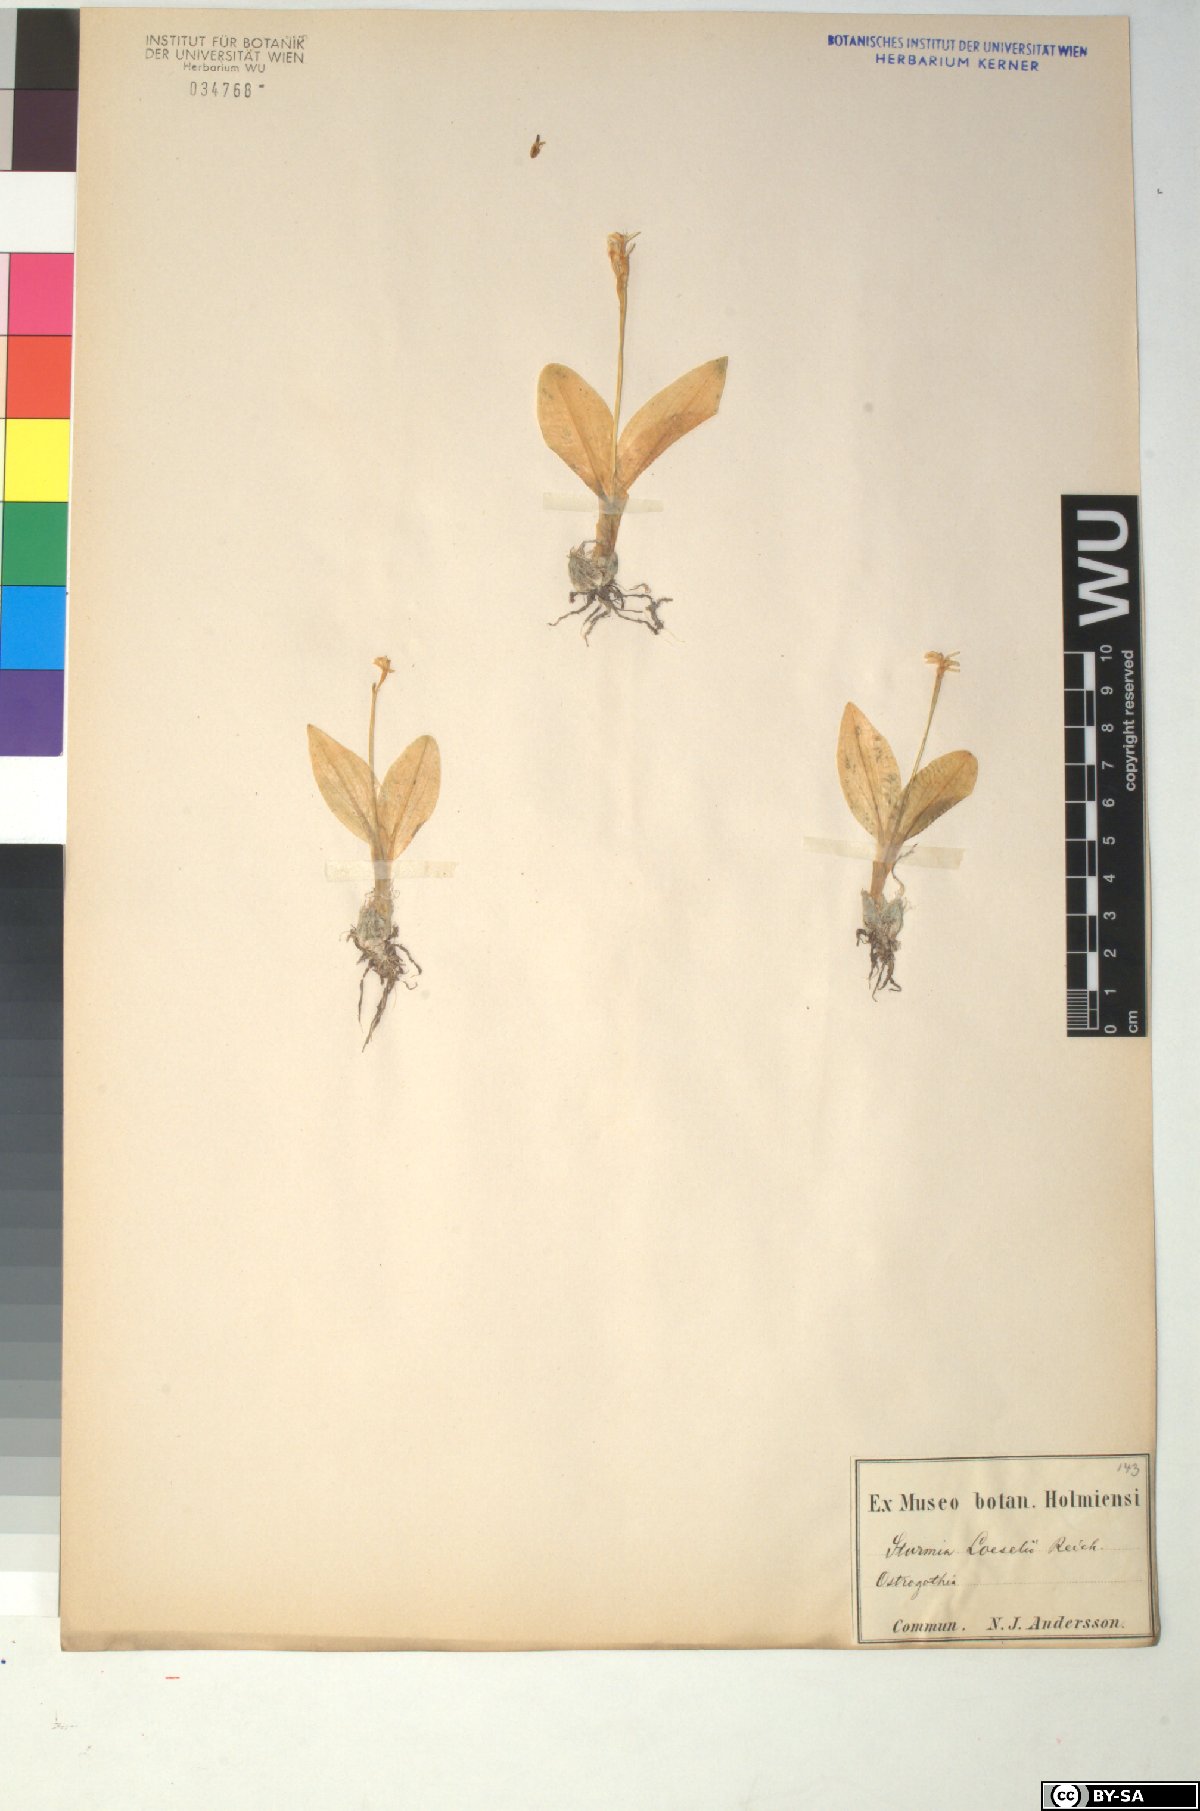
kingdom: Animalia
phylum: Arthropoda
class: Insecta
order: Coleoptera
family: Curculionidae
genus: Liparis
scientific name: Liparis loeselii
